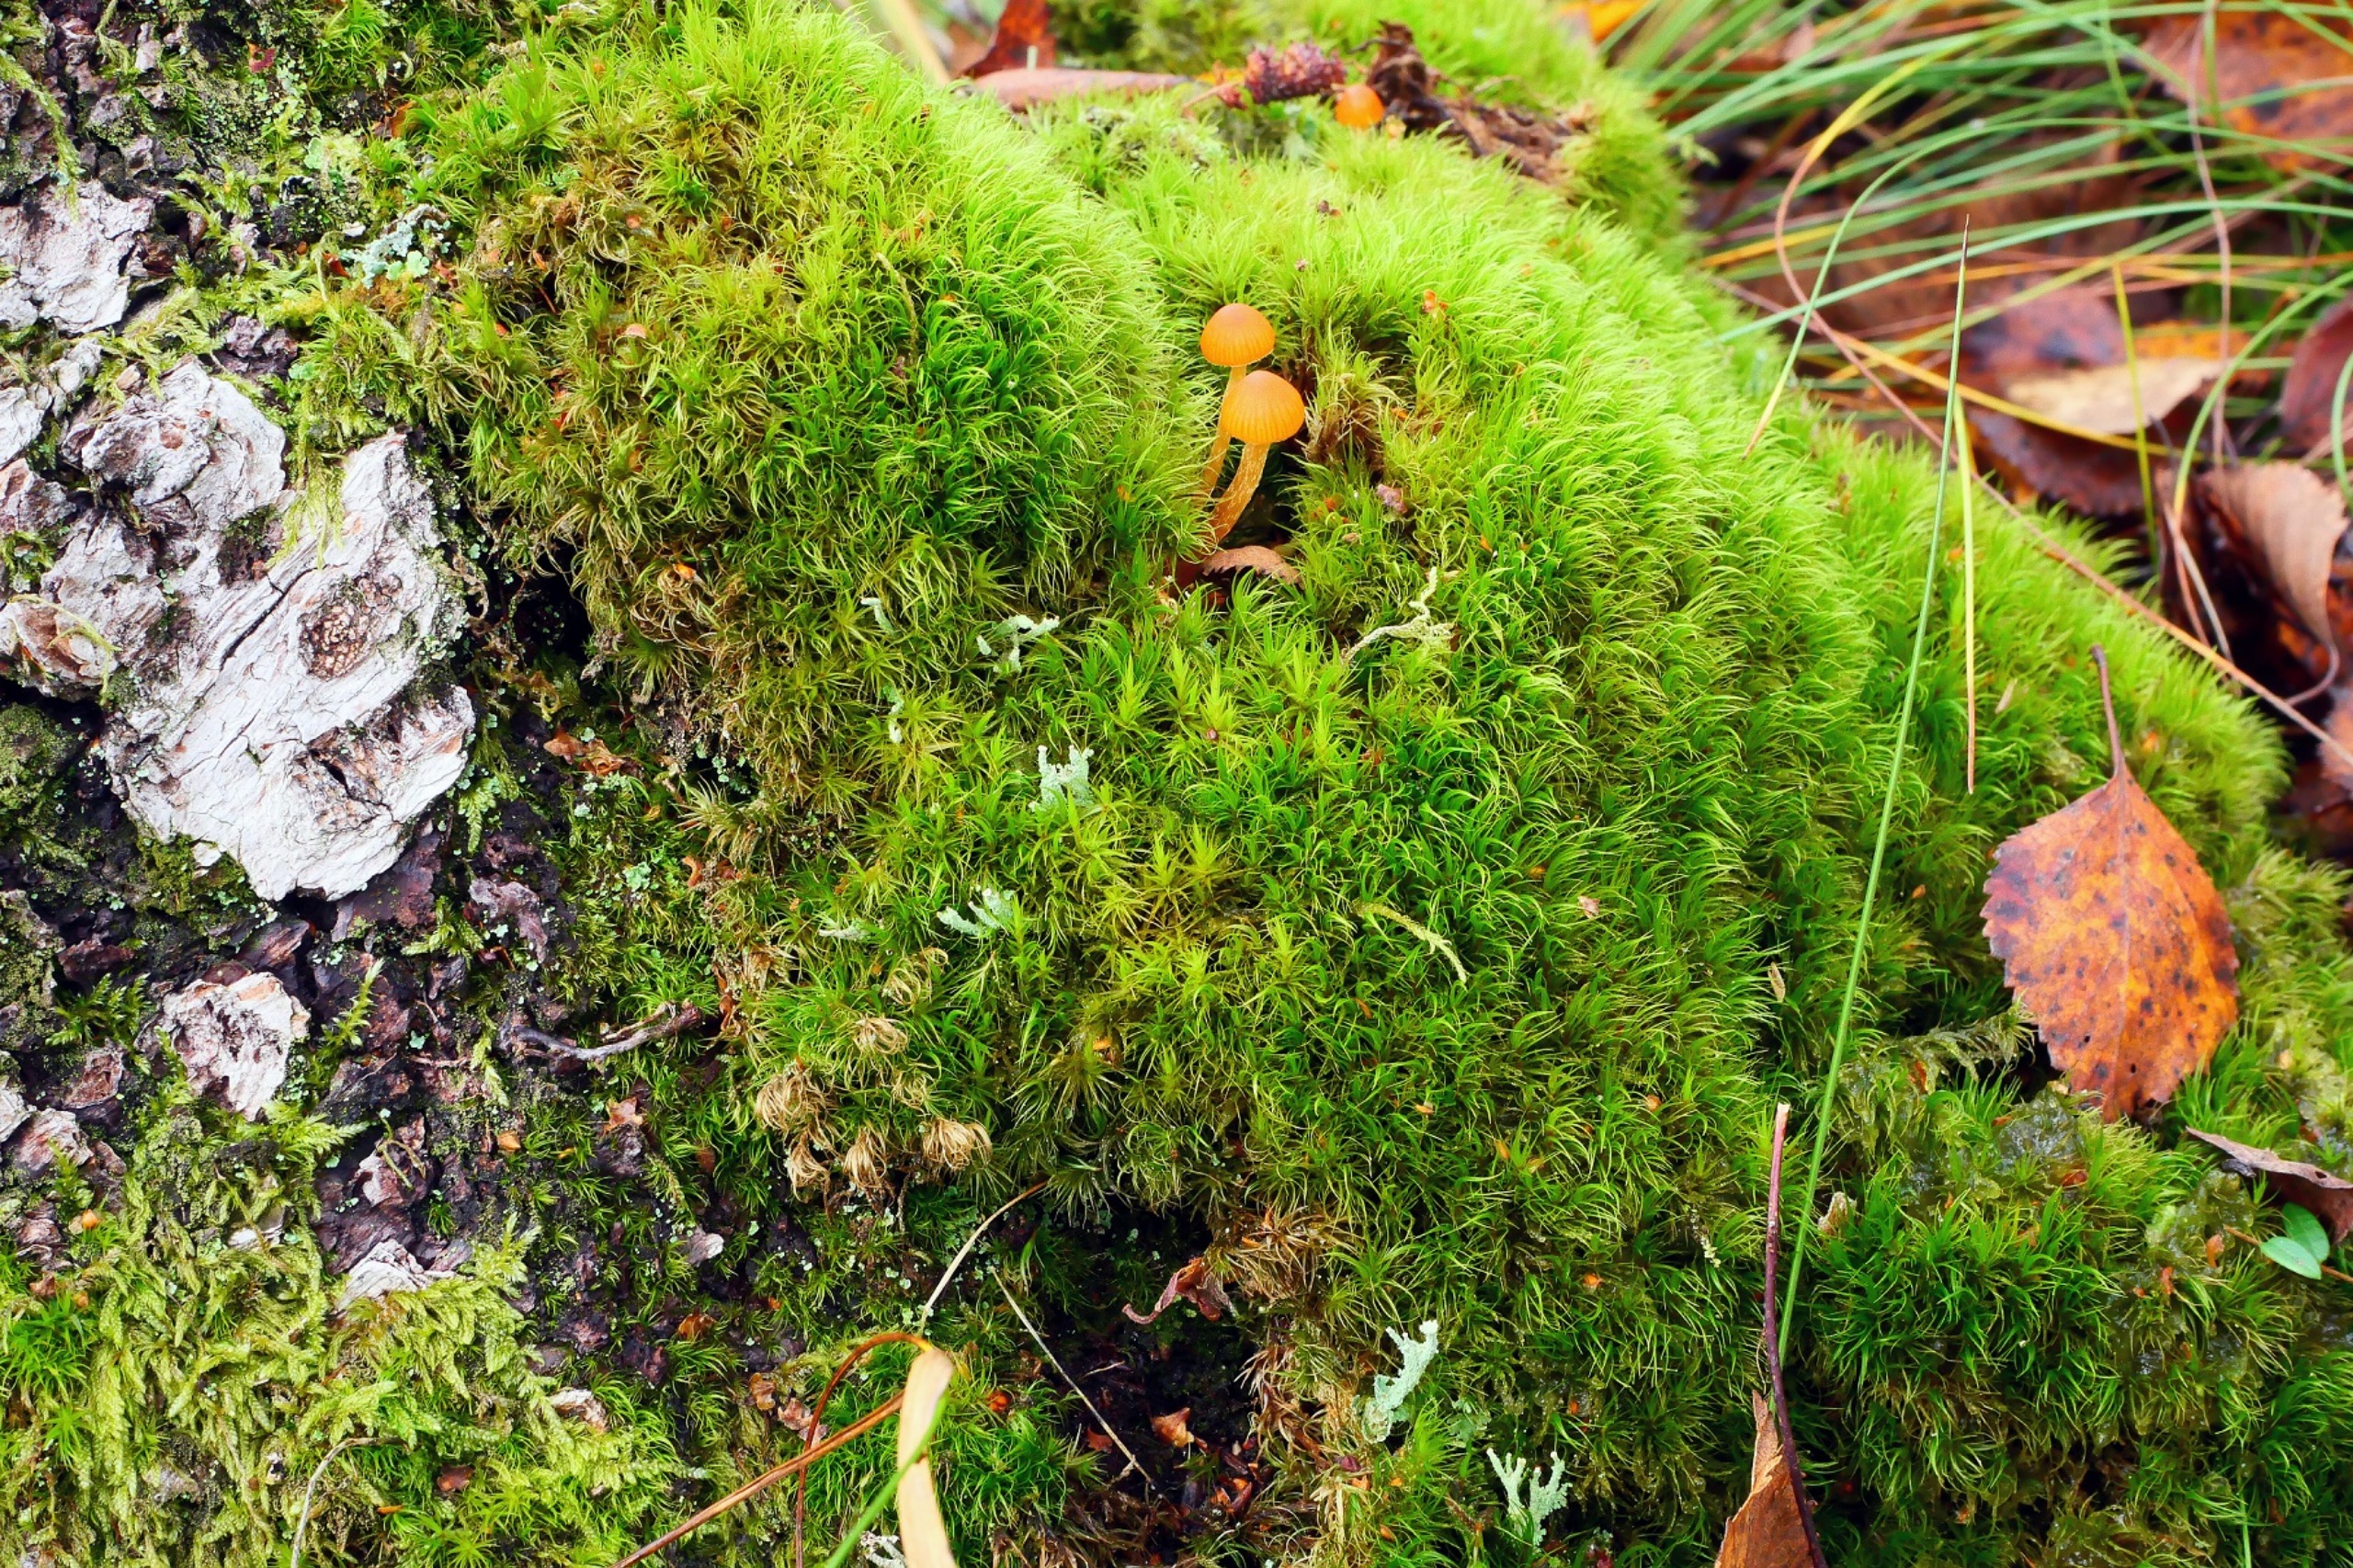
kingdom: Plantae
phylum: Bryophyta
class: Bryopsida
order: Dicranales
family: Dicranaceae
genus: Dicranum
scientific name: Dicranum fuscescens
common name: Mørk kløvtand
